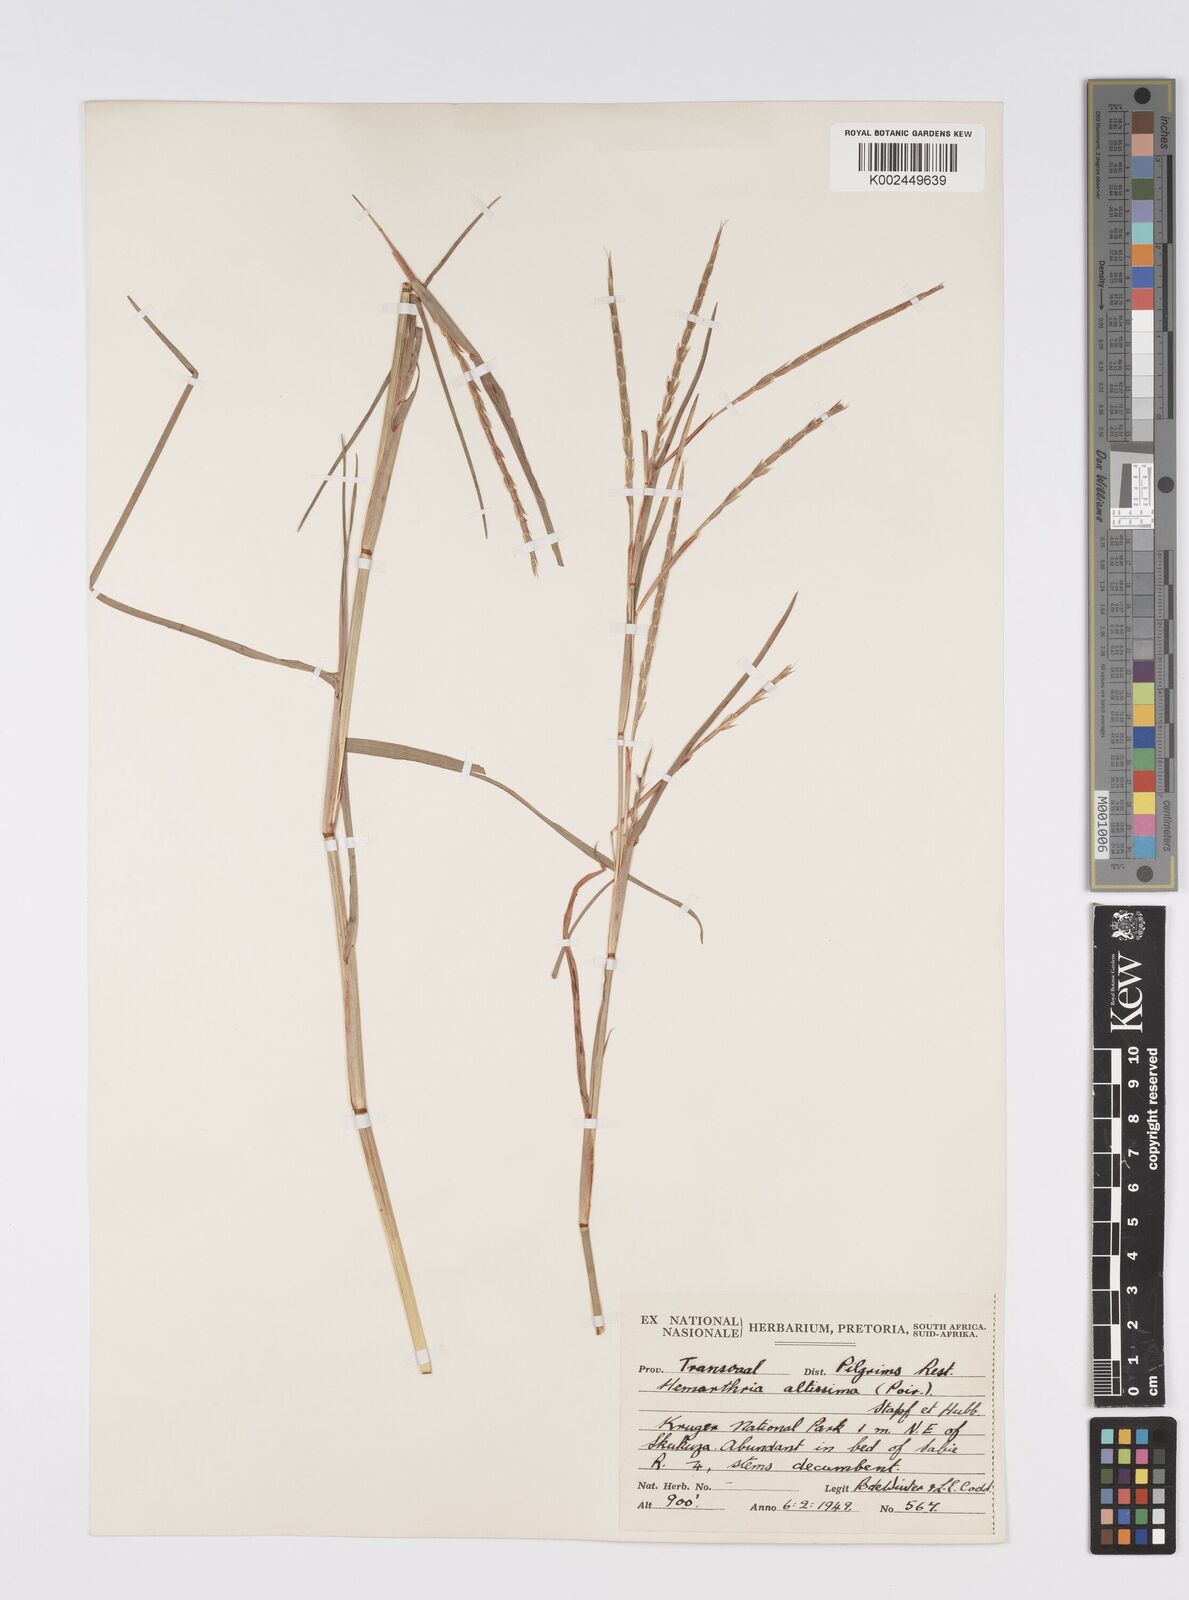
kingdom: Plantae
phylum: Tracheophyta
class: Liliopsida
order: Poales
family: Poaceae
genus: Hemarthria
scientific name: Hemarthria altissima
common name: African jointgrass
